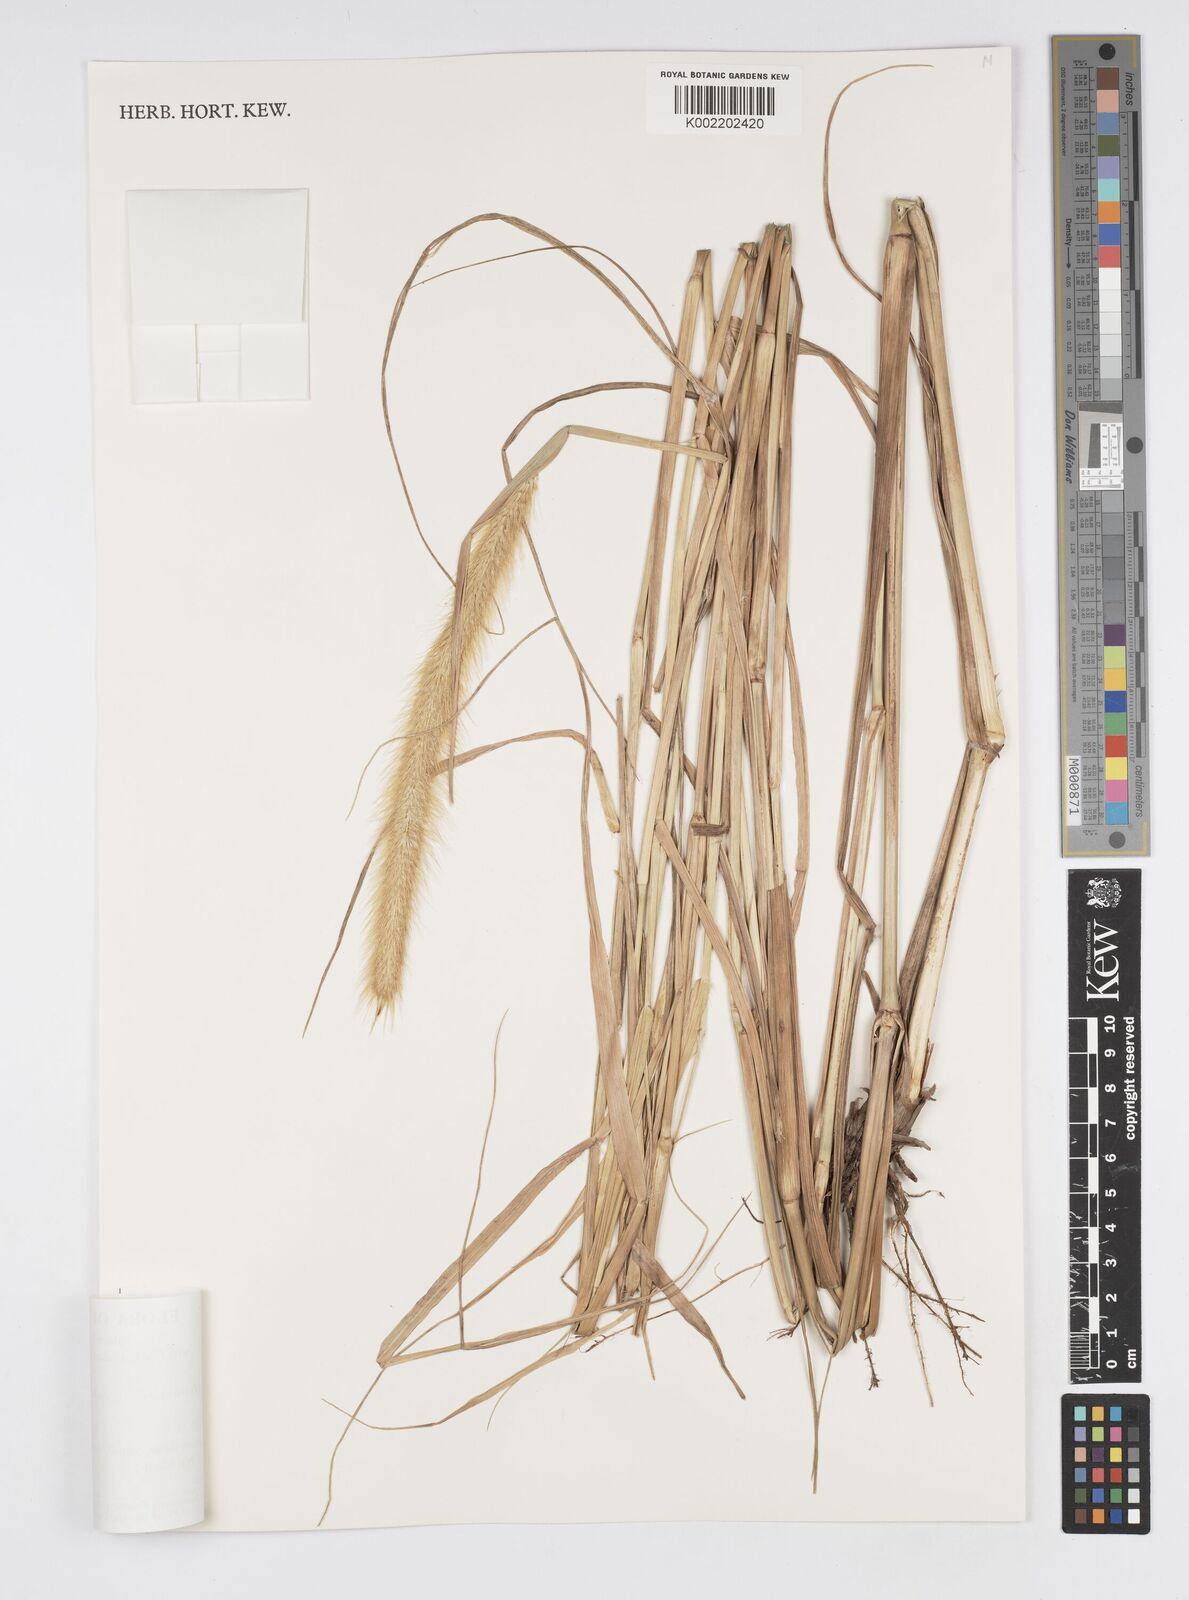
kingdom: Plantae
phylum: Tracheophyta
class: Liliopsida
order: Poales
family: Poaceae
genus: Setaria
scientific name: Setaria parviflora
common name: Knotroot bristle-grass
